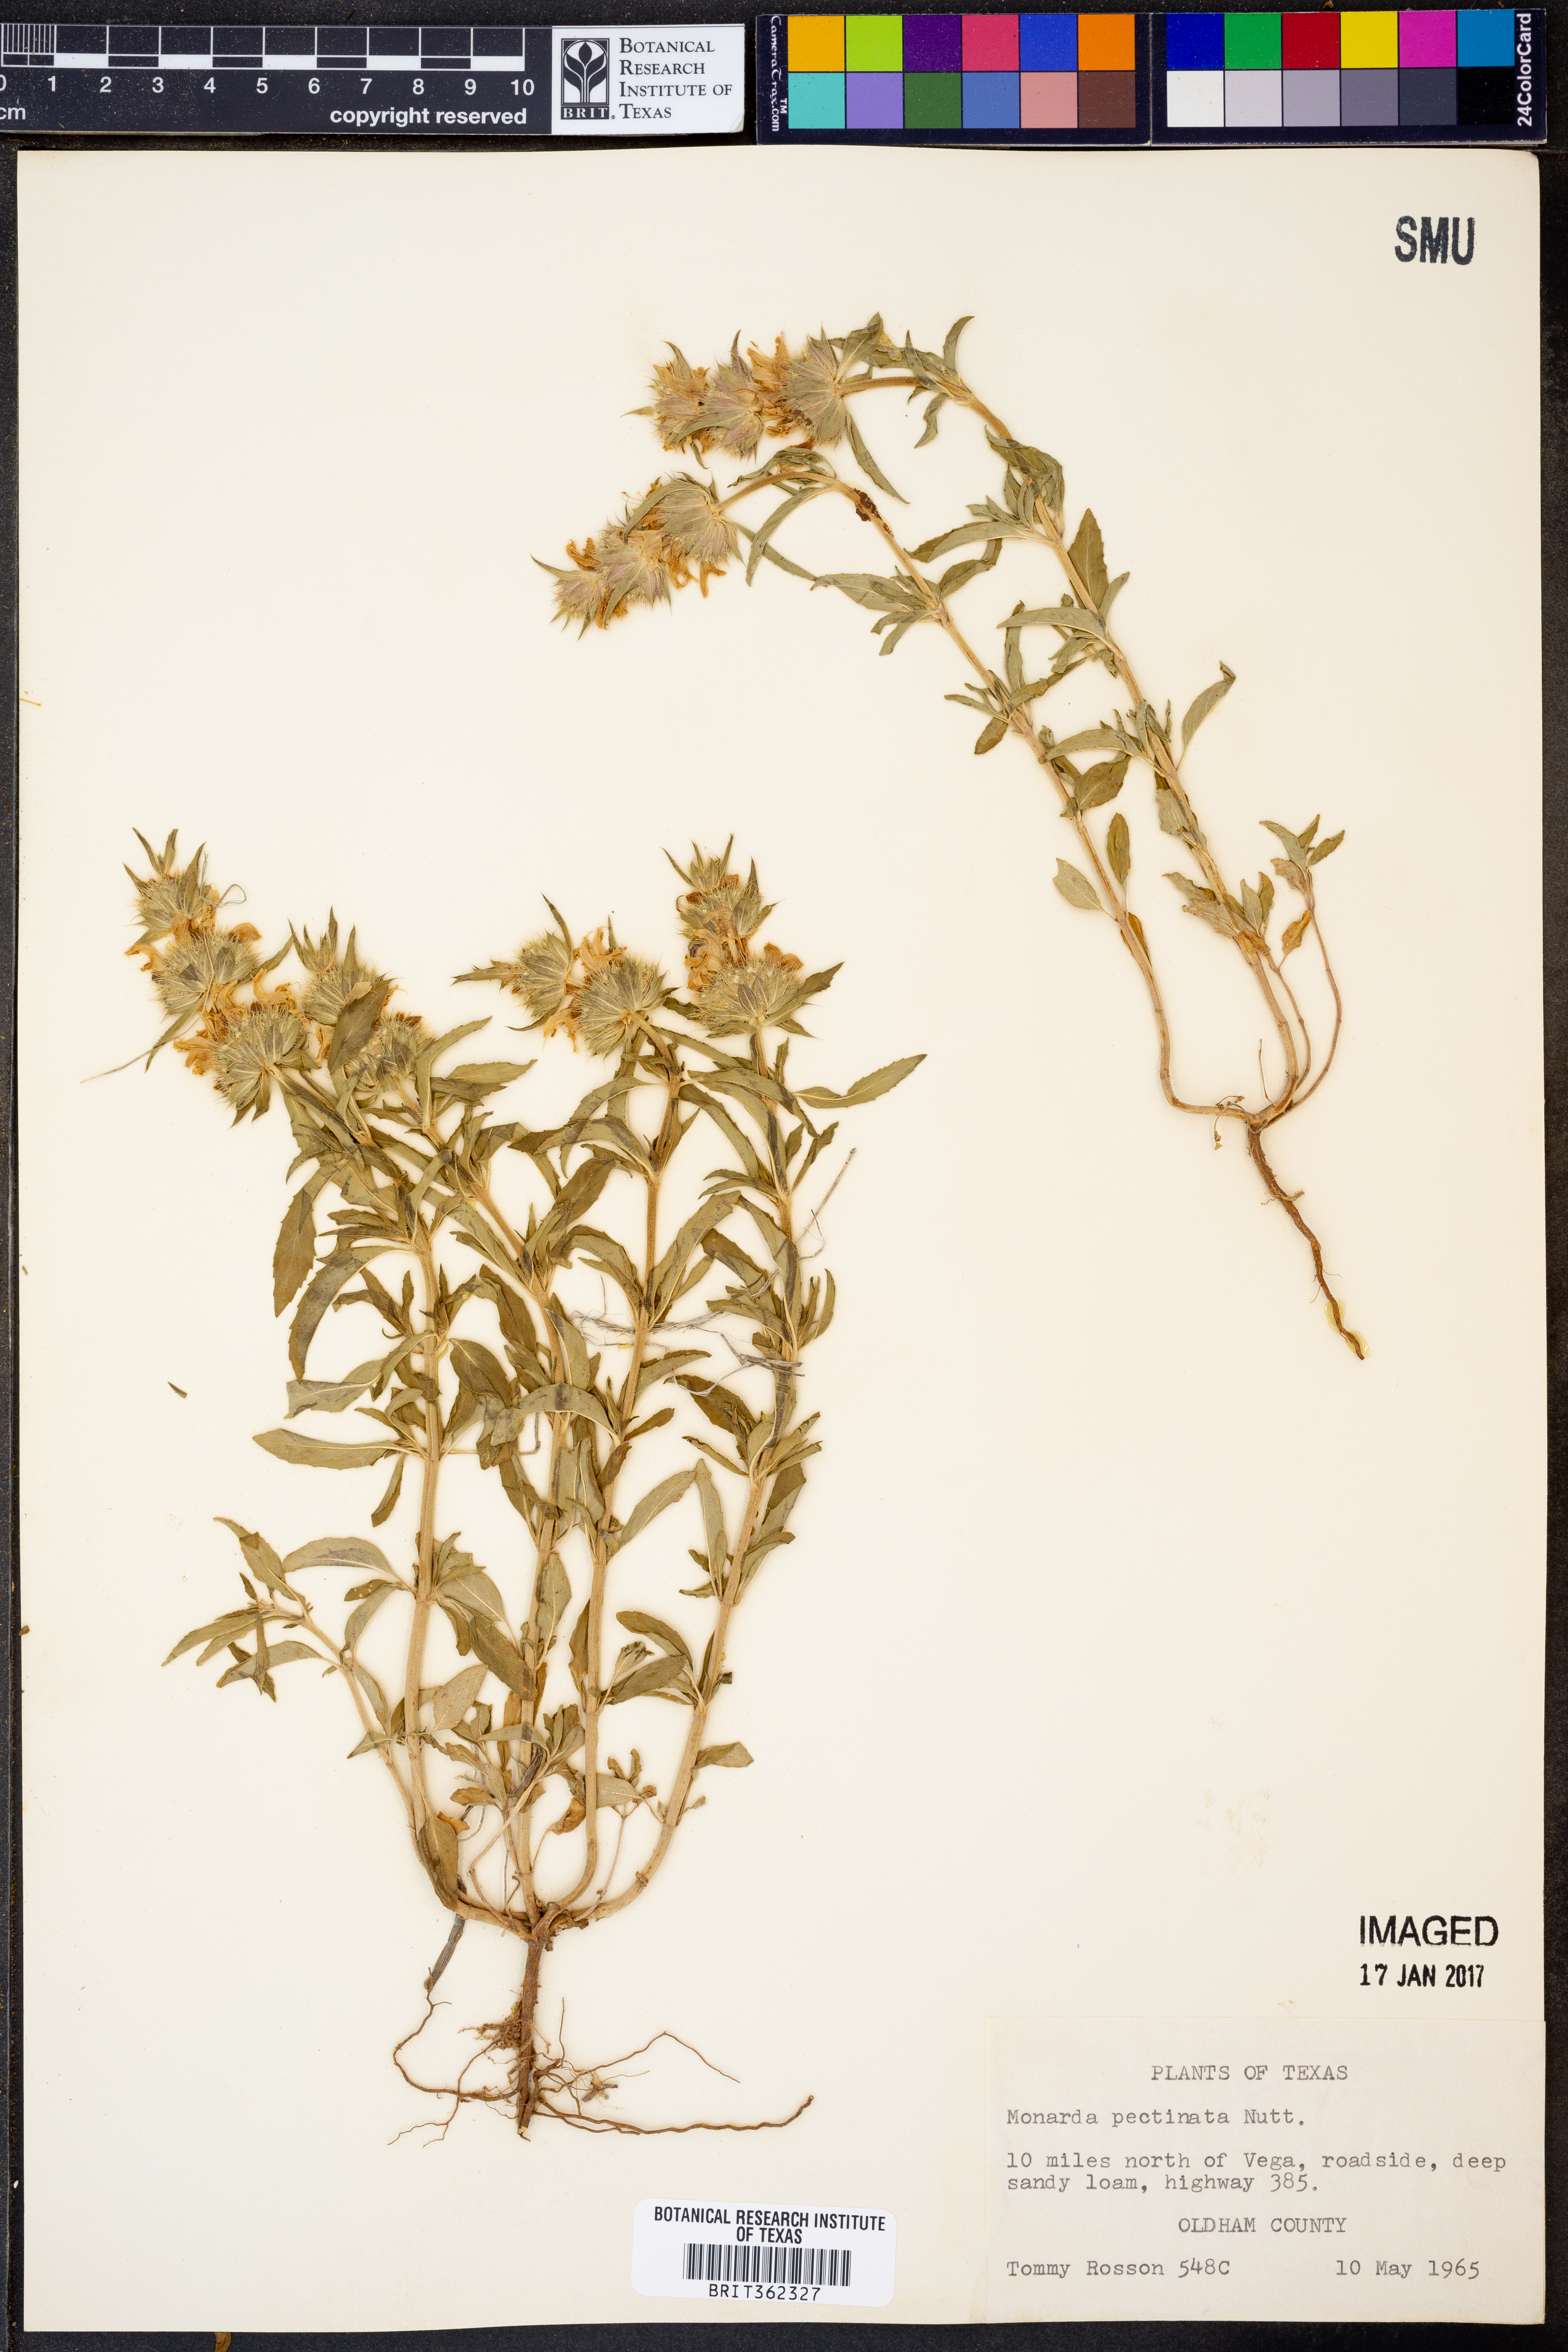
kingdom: Plantae
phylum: Tracheophyta
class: Magnoliopsida
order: Lamiales
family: Lamiaceae
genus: Monarda
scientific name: Monarda pectinata
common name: Plains beebalm
